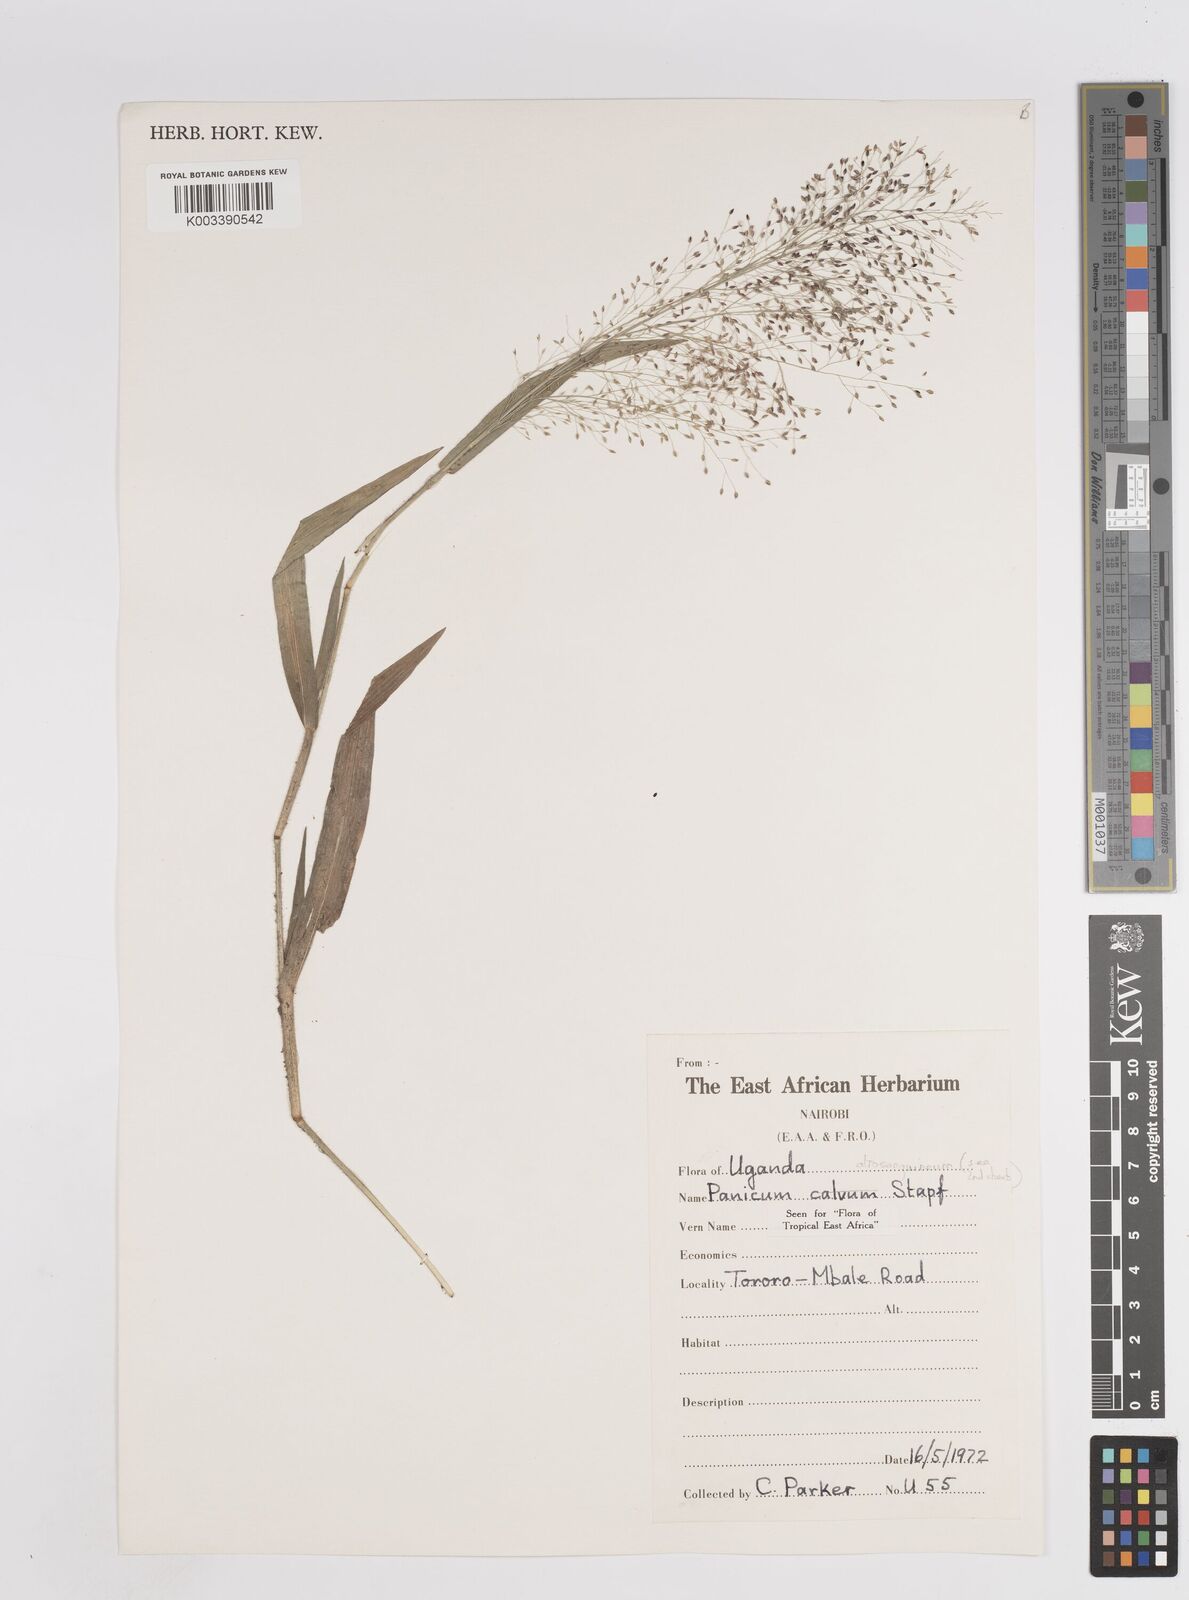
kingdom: Plantae
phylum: Tracheophyta
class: Liliopsida
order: Poales
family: Poaceae
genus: Panicum
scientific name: Panicum atrosanguineum
